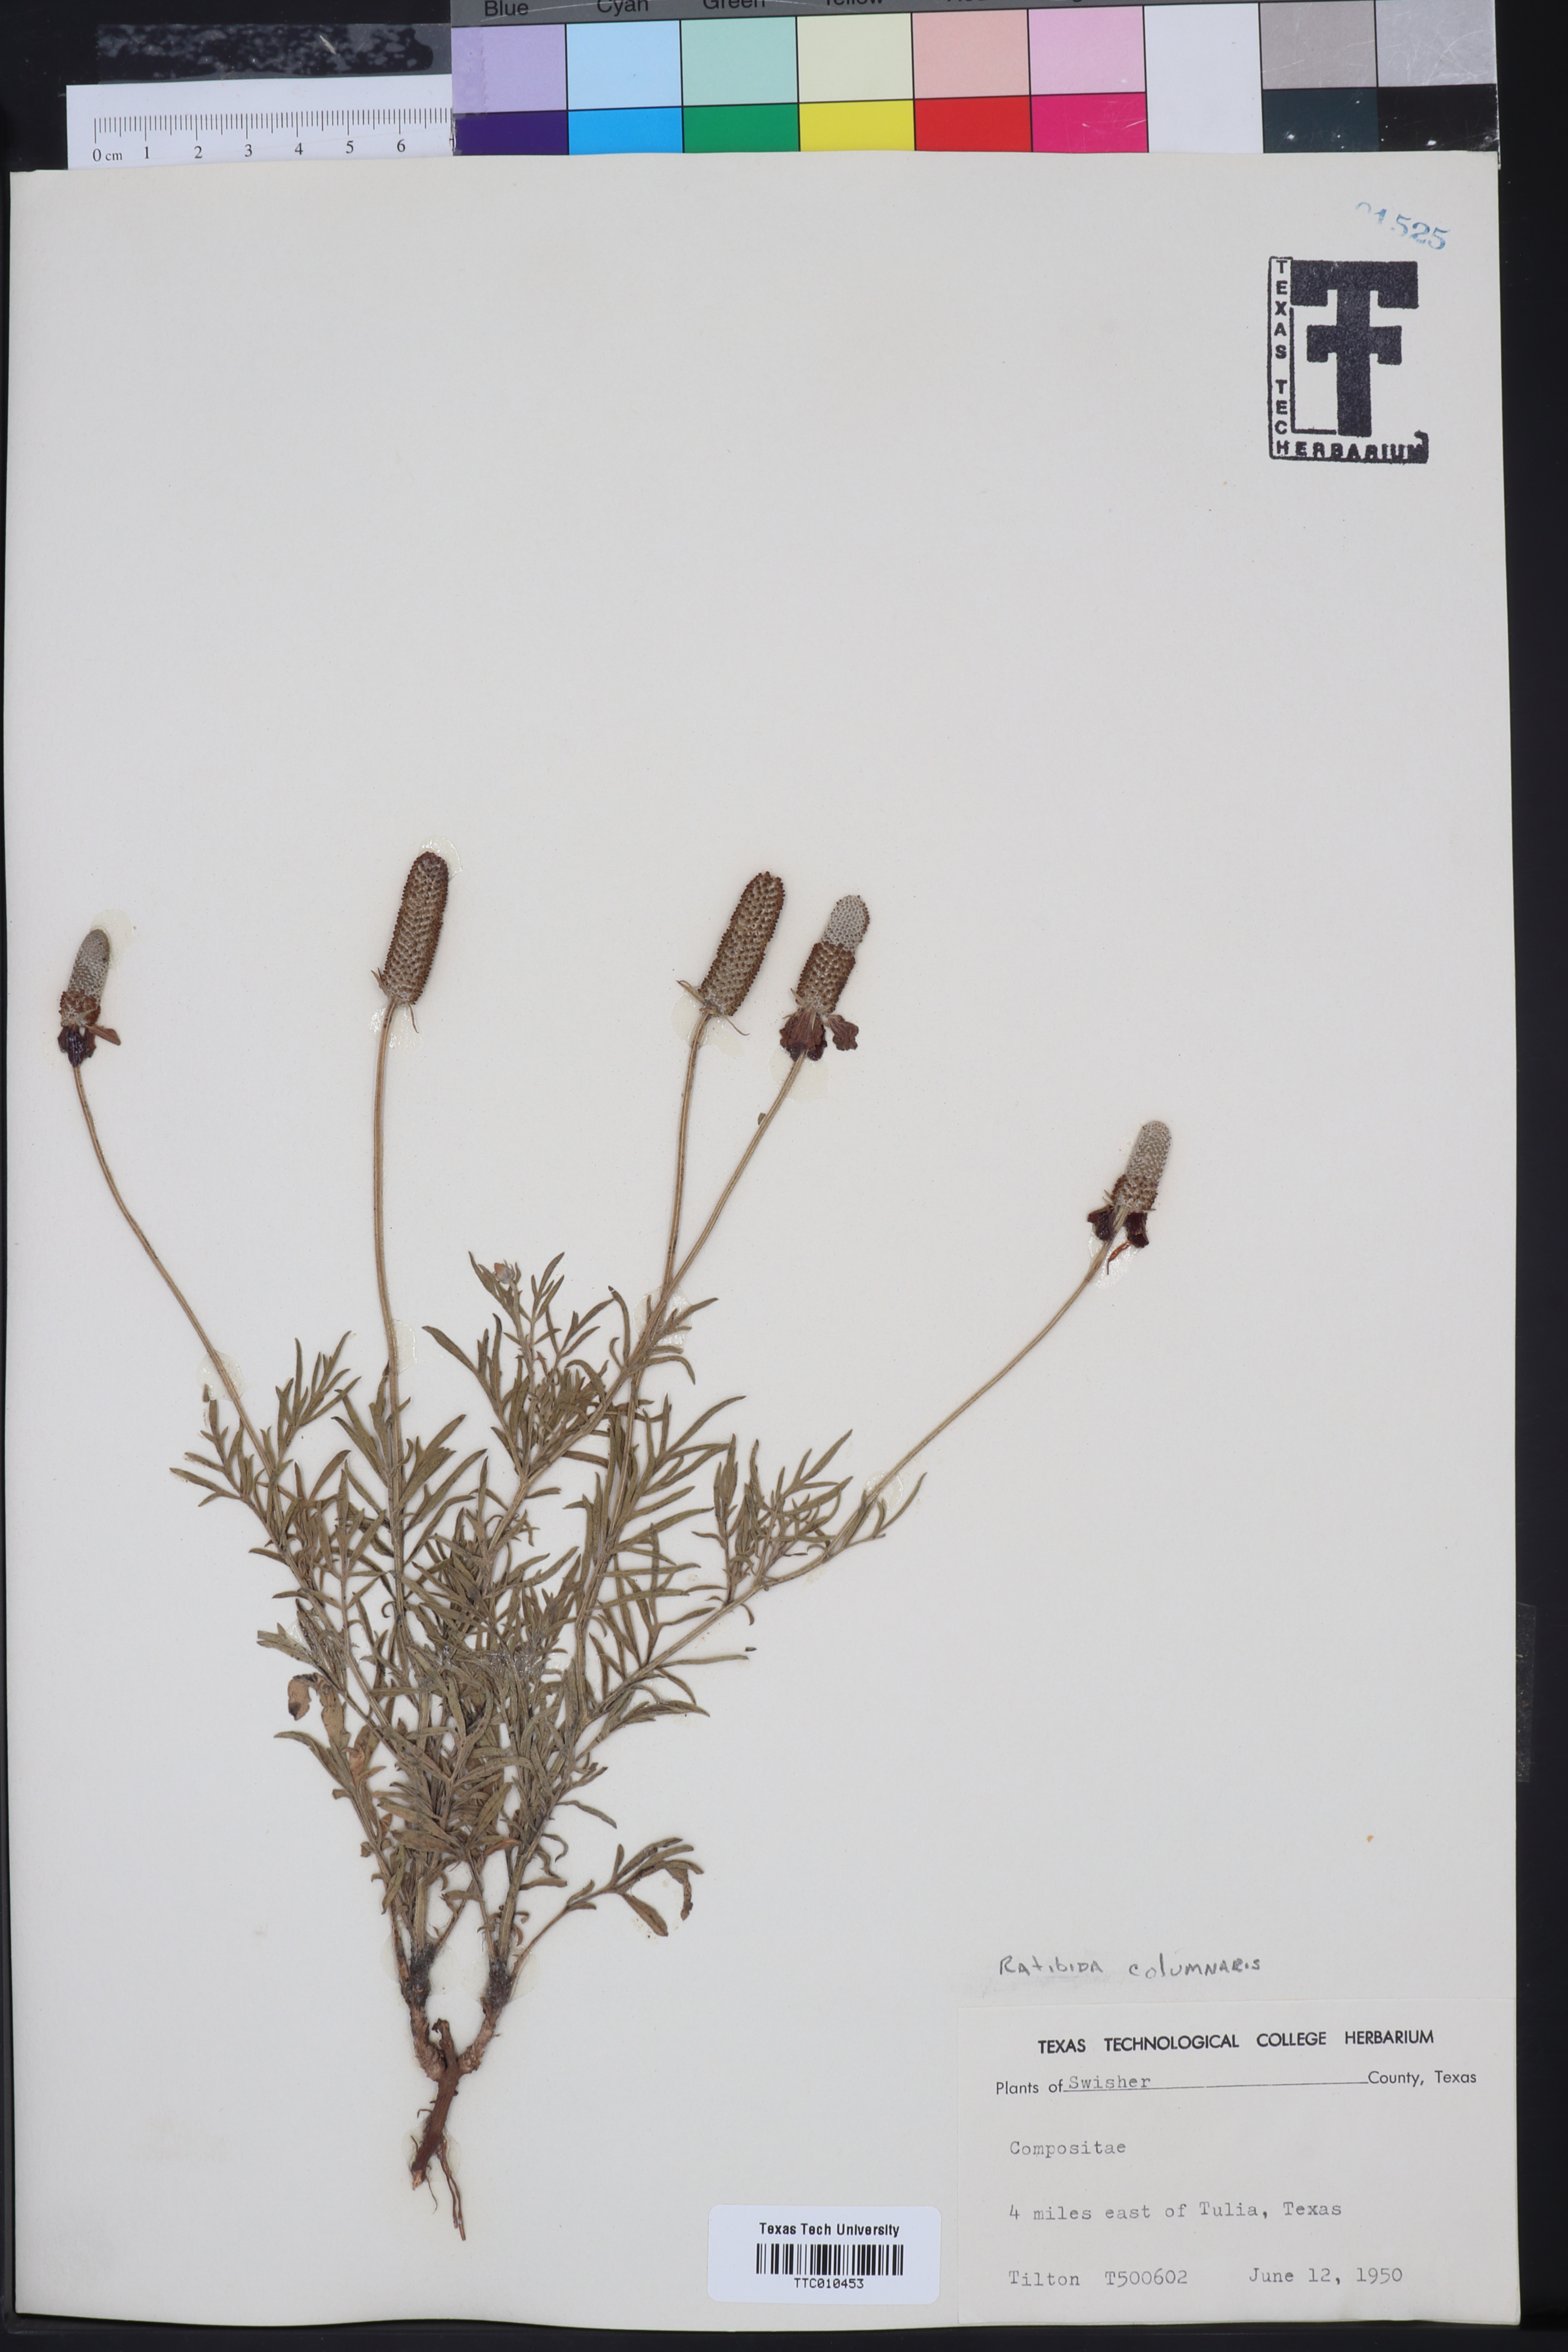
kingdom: Plantae
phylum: Tracheophyta
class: Magnoliopsida
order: Asterales
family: Asteraceae
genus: Ratibida
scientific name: Ratibida columnifera
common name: Prairie coneflower
